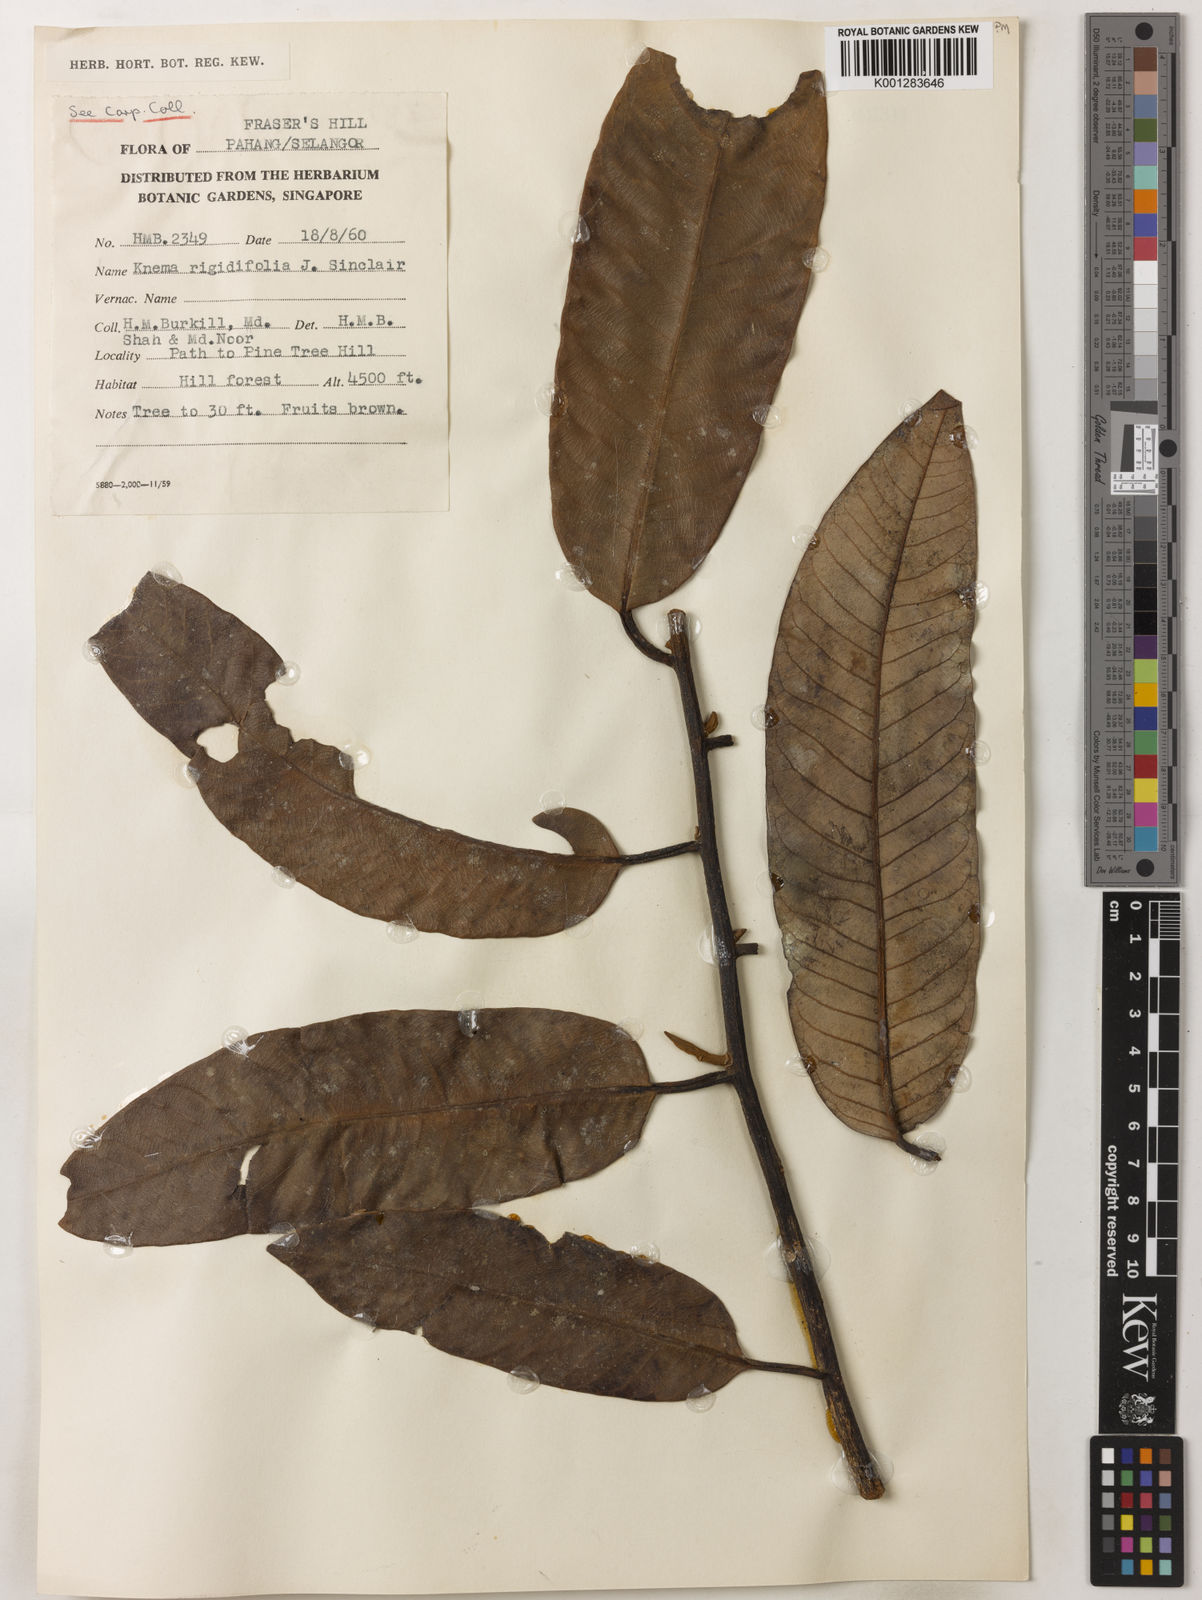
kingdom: Plantae
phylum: Tracheophyta
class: Magnoliopsida
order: Magnoliales
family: Myristicaceae
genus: Knema
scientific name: Knema rigidifolia
